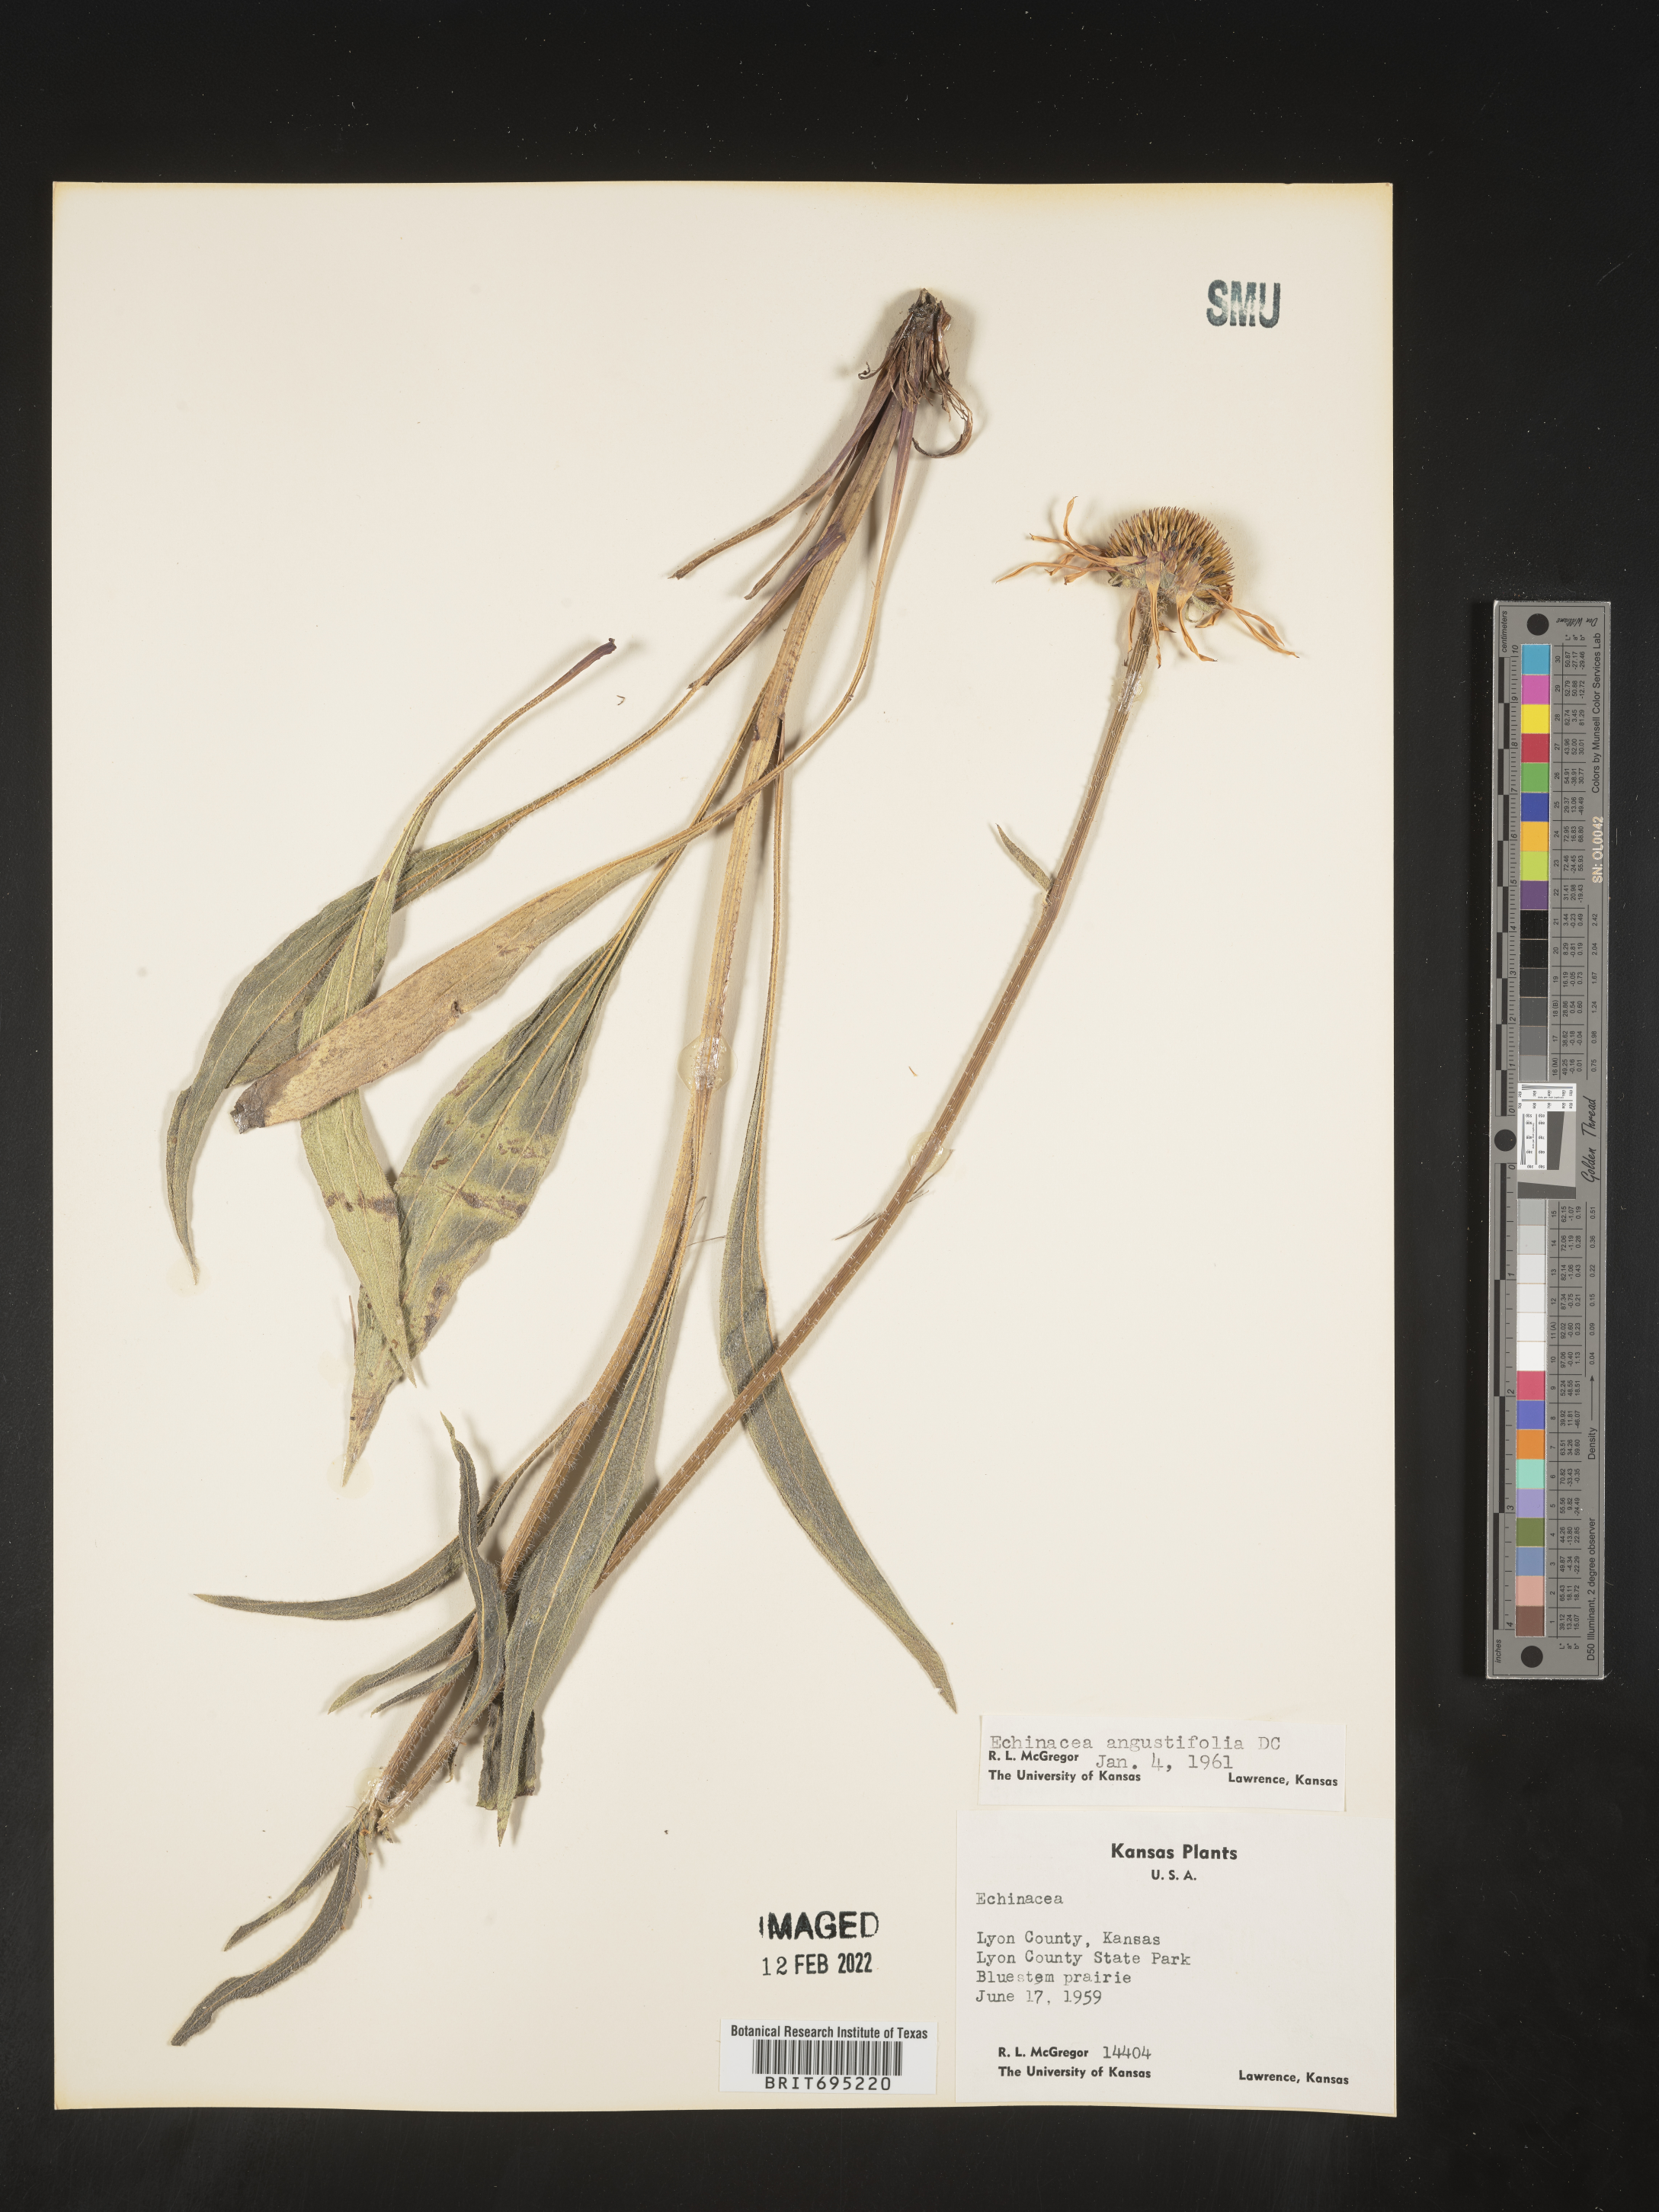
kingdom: Plantae
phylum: Tracheophyta
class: Magnoliopsida
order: Asterales
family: Asteraceae
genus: Echinacea
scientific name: Echinacea angustifolia
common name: Black-sampson echinacea
